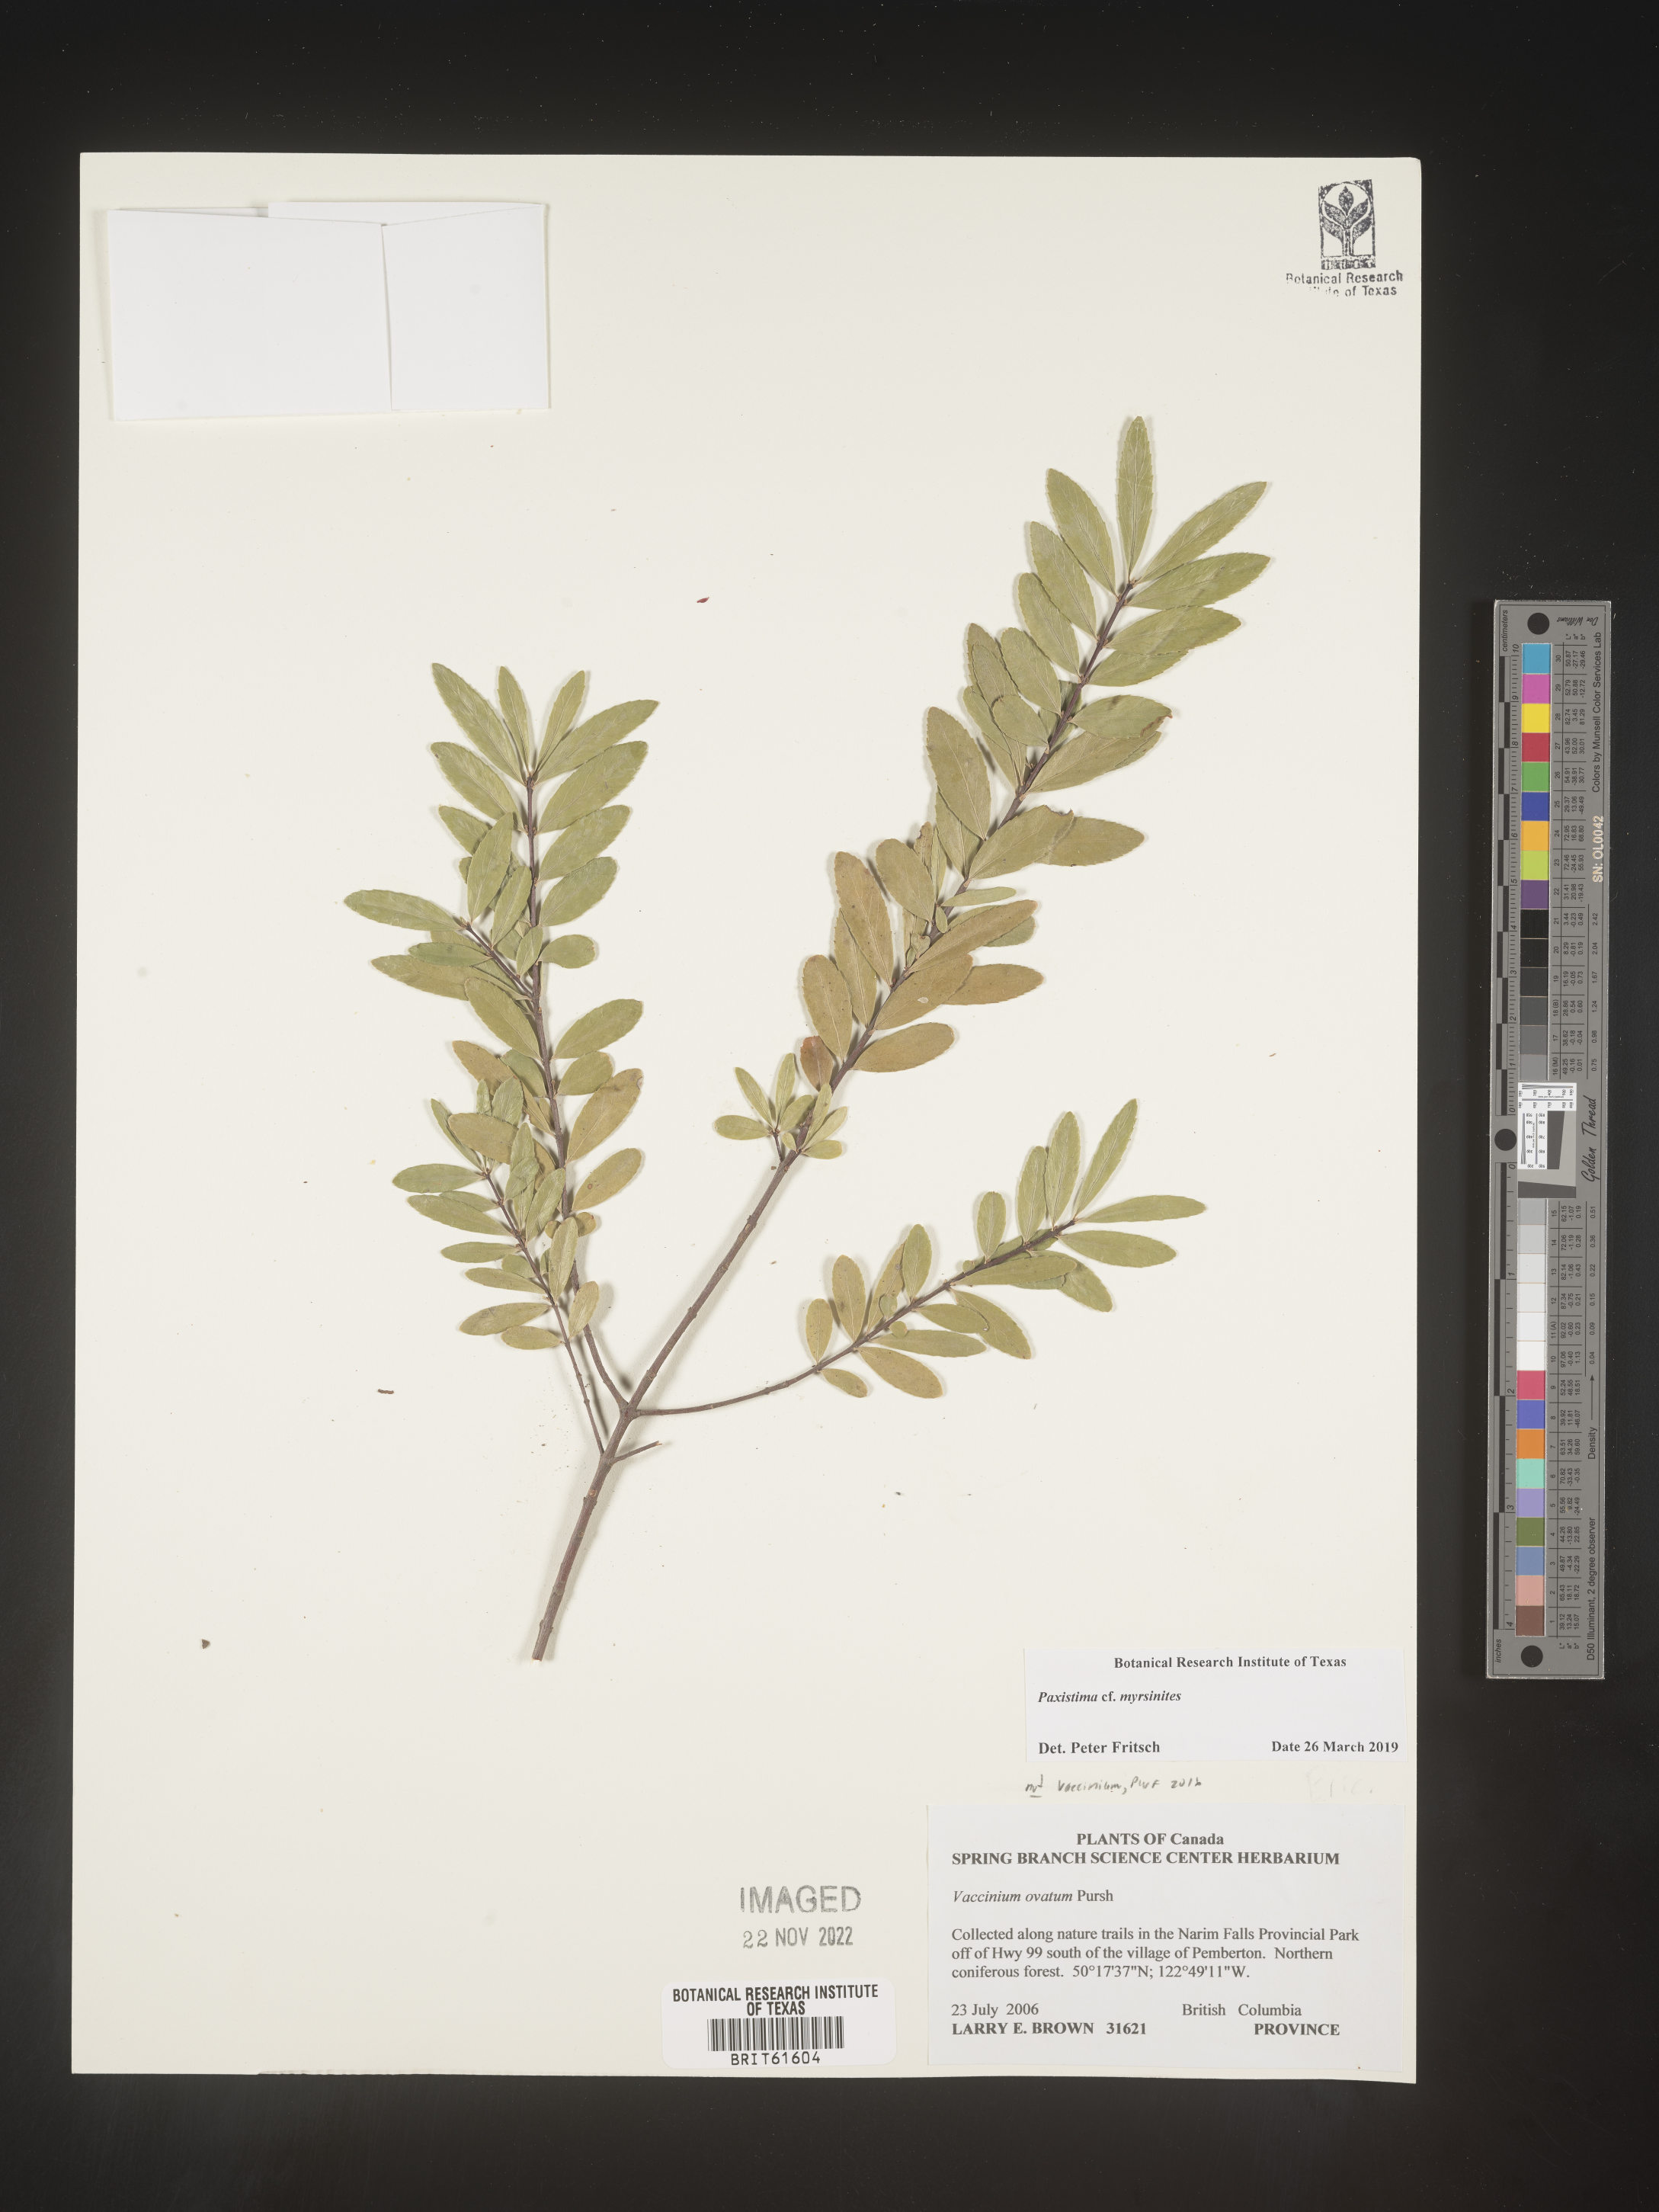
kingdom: Plantae
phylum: Tracheophyta
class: Magnoliopsida
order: Celastrales
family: Celastraceae
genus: Paxistima
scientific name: Paxistima myrsinites
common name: Mountain-lover
